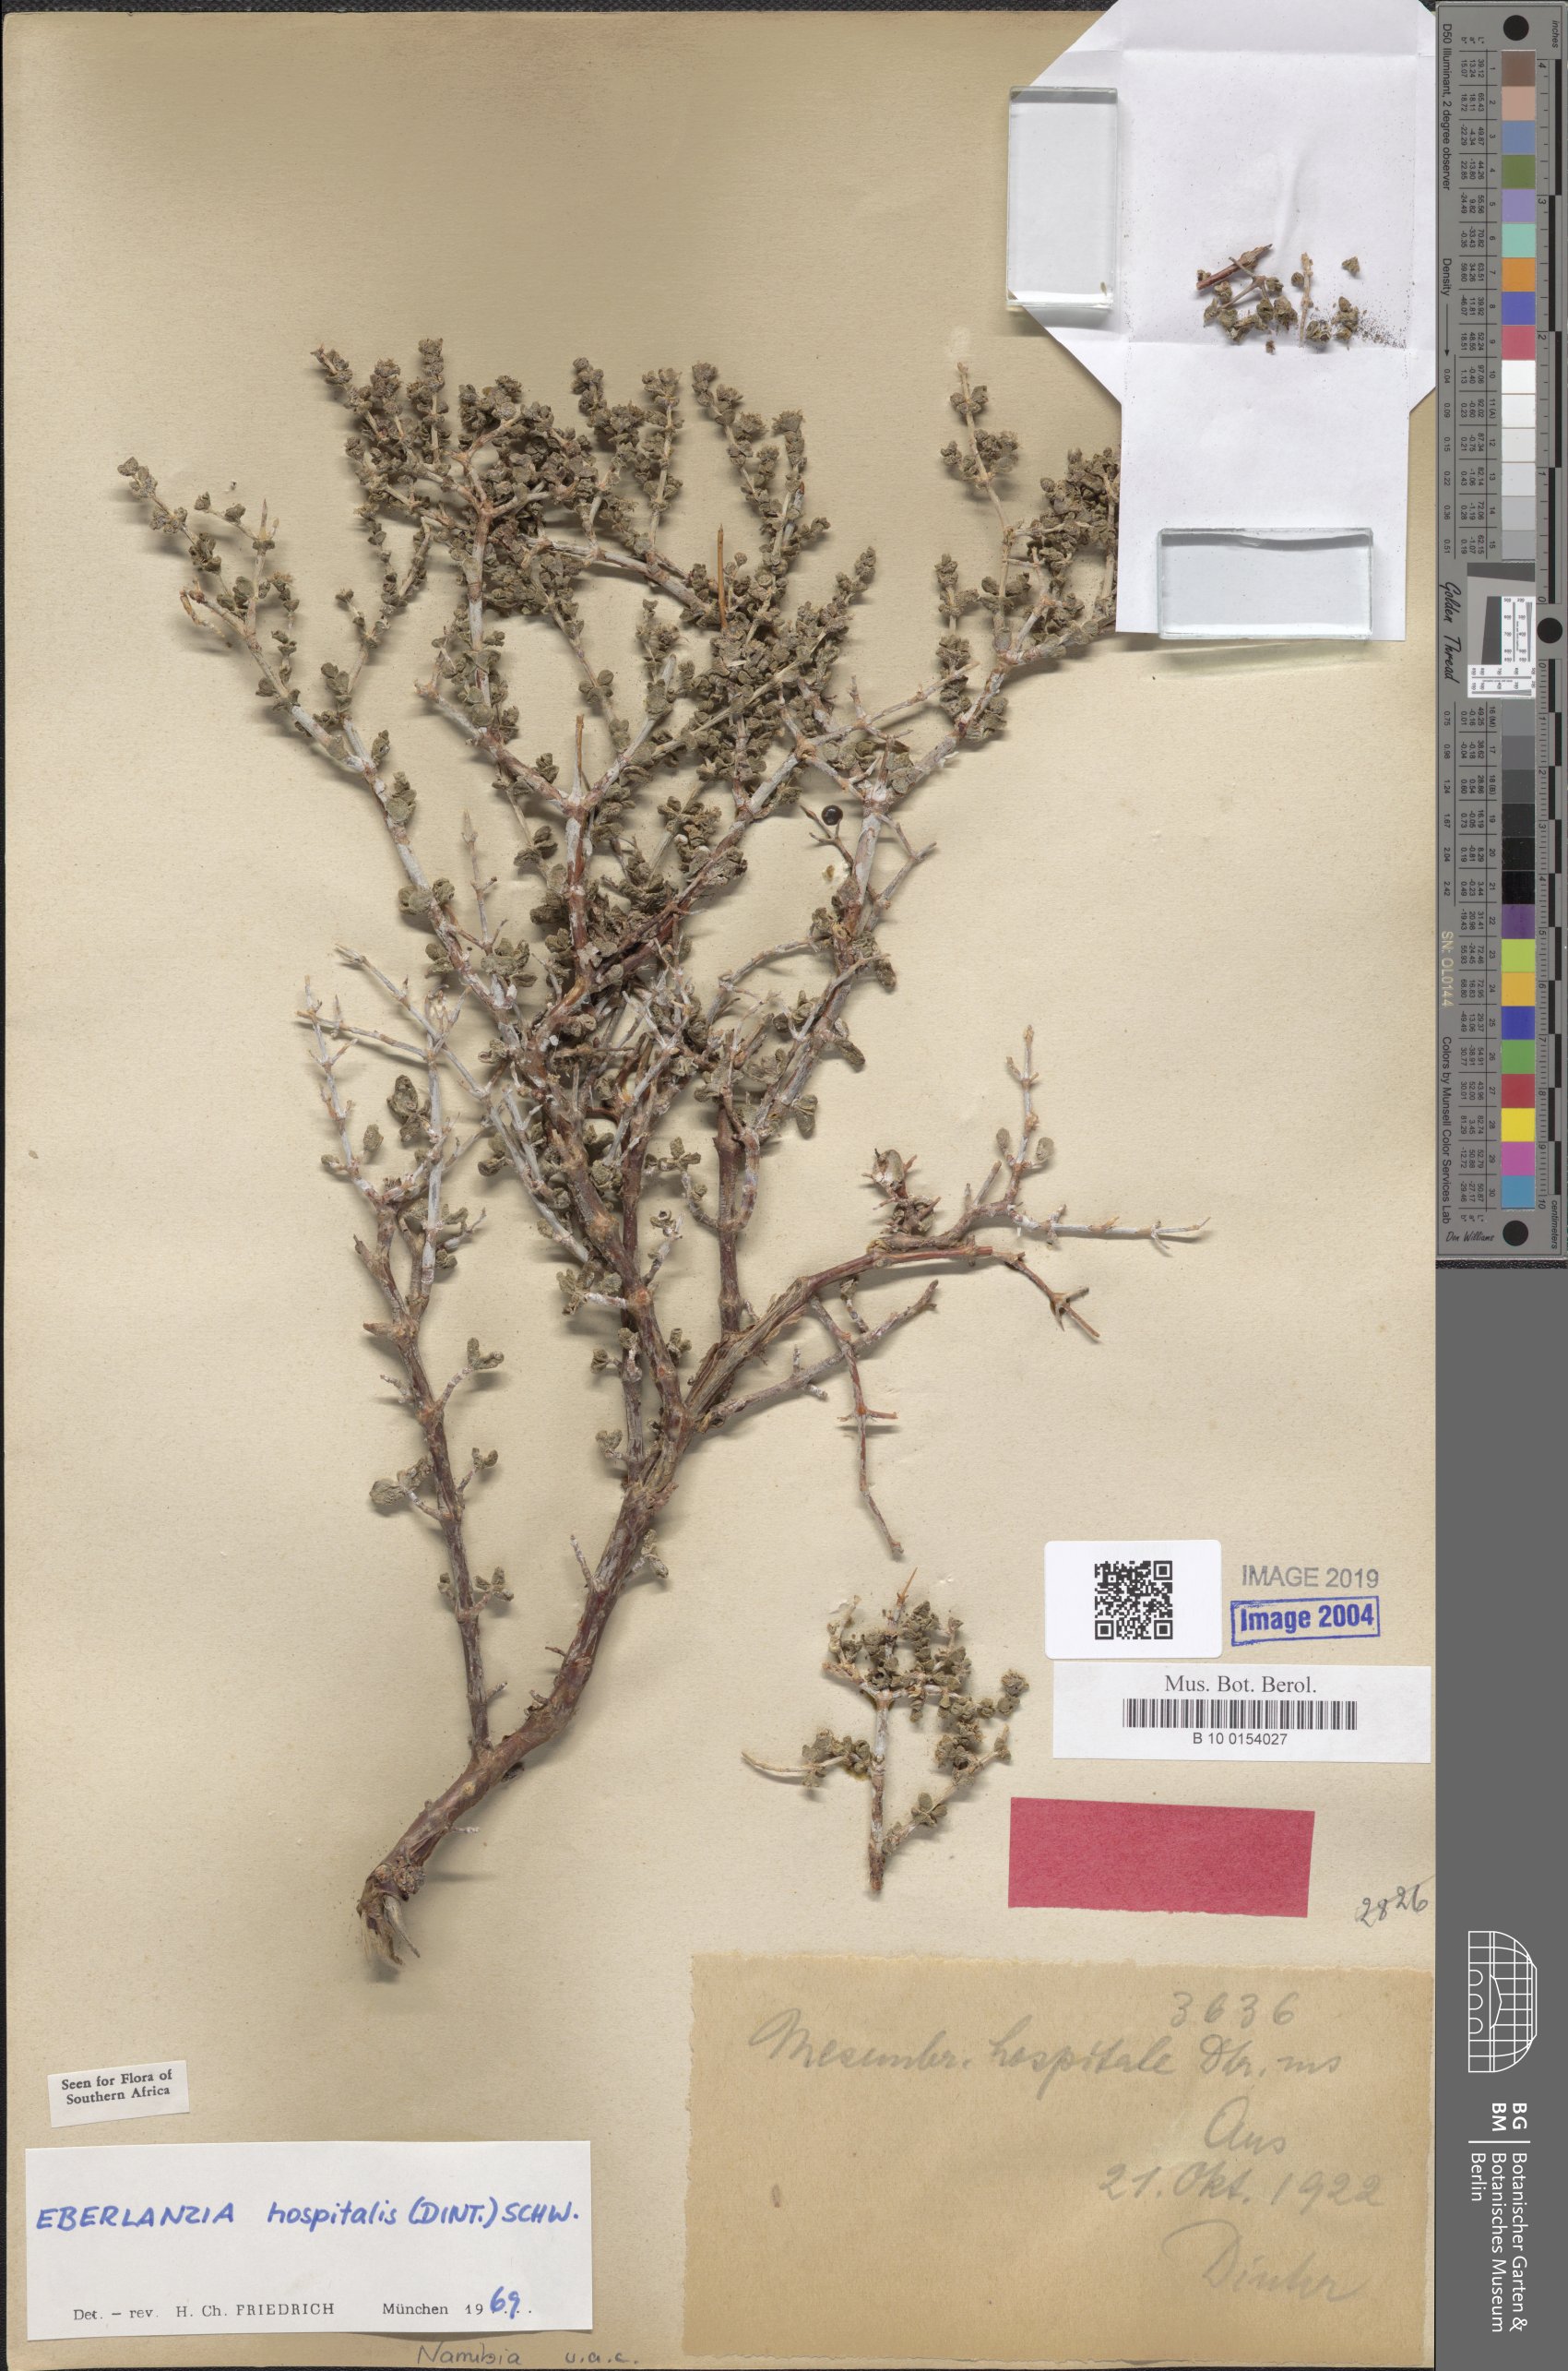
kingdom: Plantae
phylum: Tracheophyta
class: Magnoliopsida
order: Caryophyllales
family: Aizoaceae
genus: Ruschia
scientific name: Ruschia spinosa
